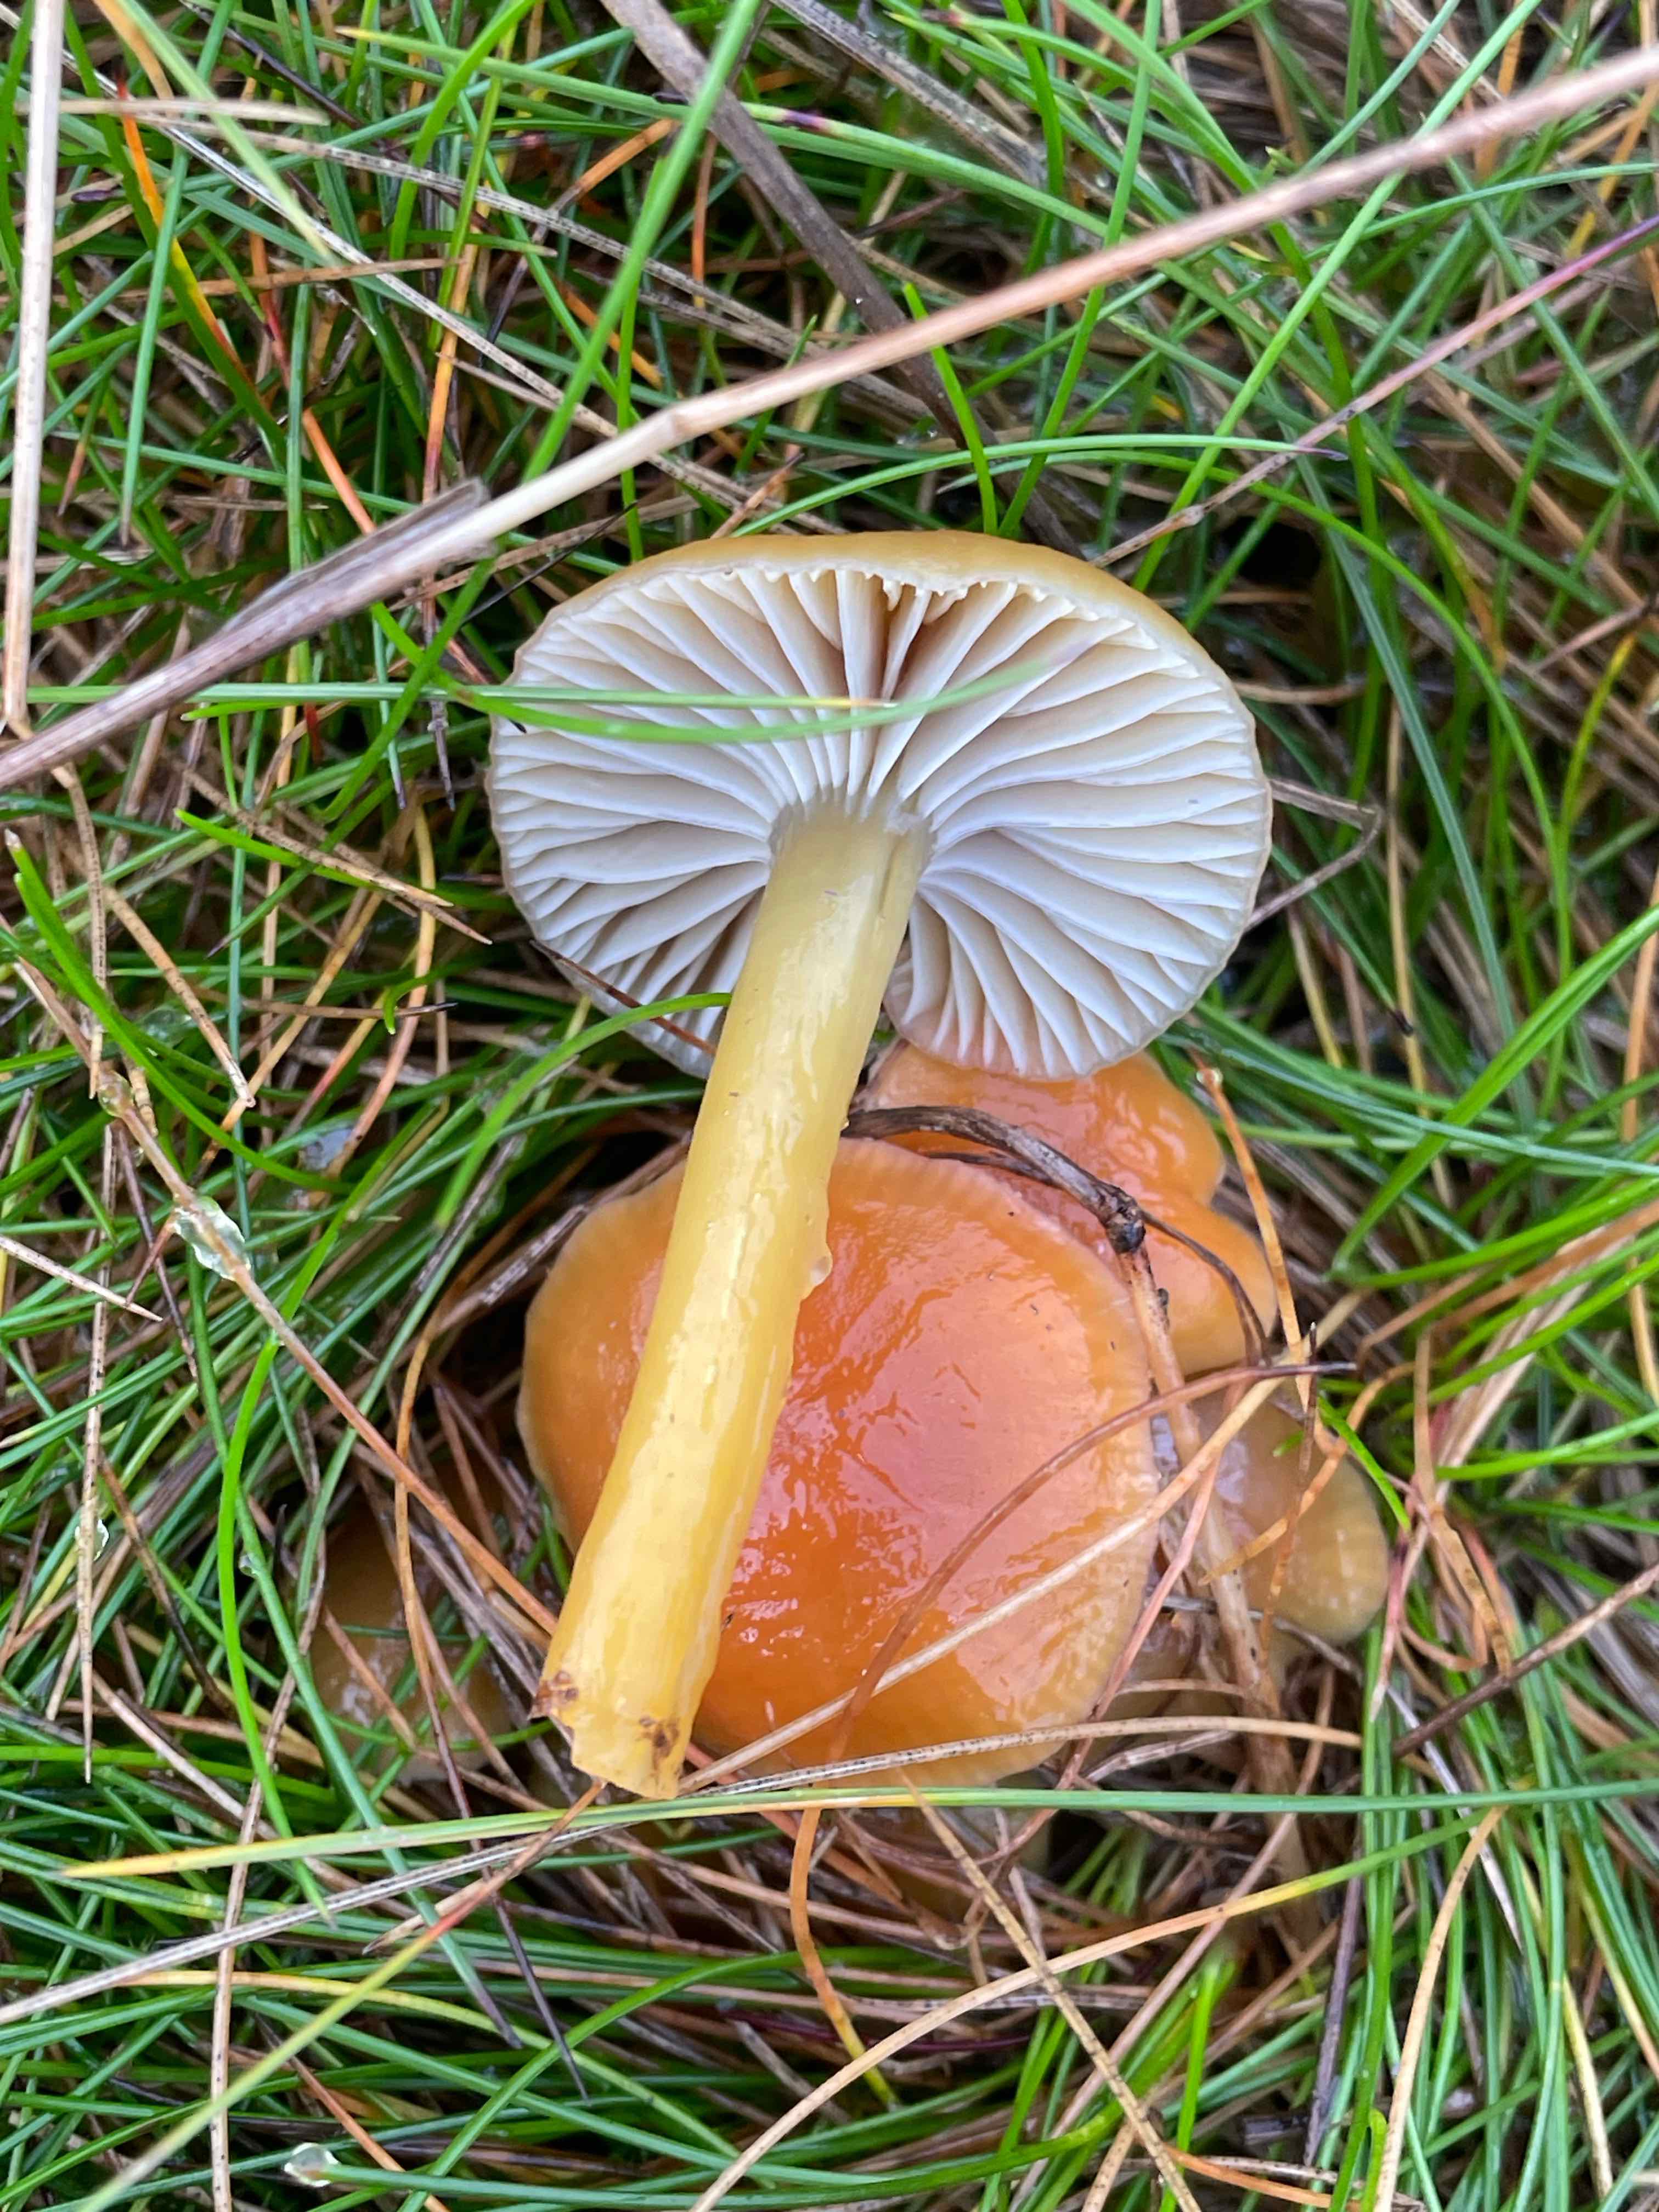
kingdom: Fungi
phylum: Basidiomycota
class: Agaricomycetes
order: Agaricales
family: Hygrophoraceae
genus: Gliophorus
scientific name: Gliophorus laetus
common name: brusk-vokshat
